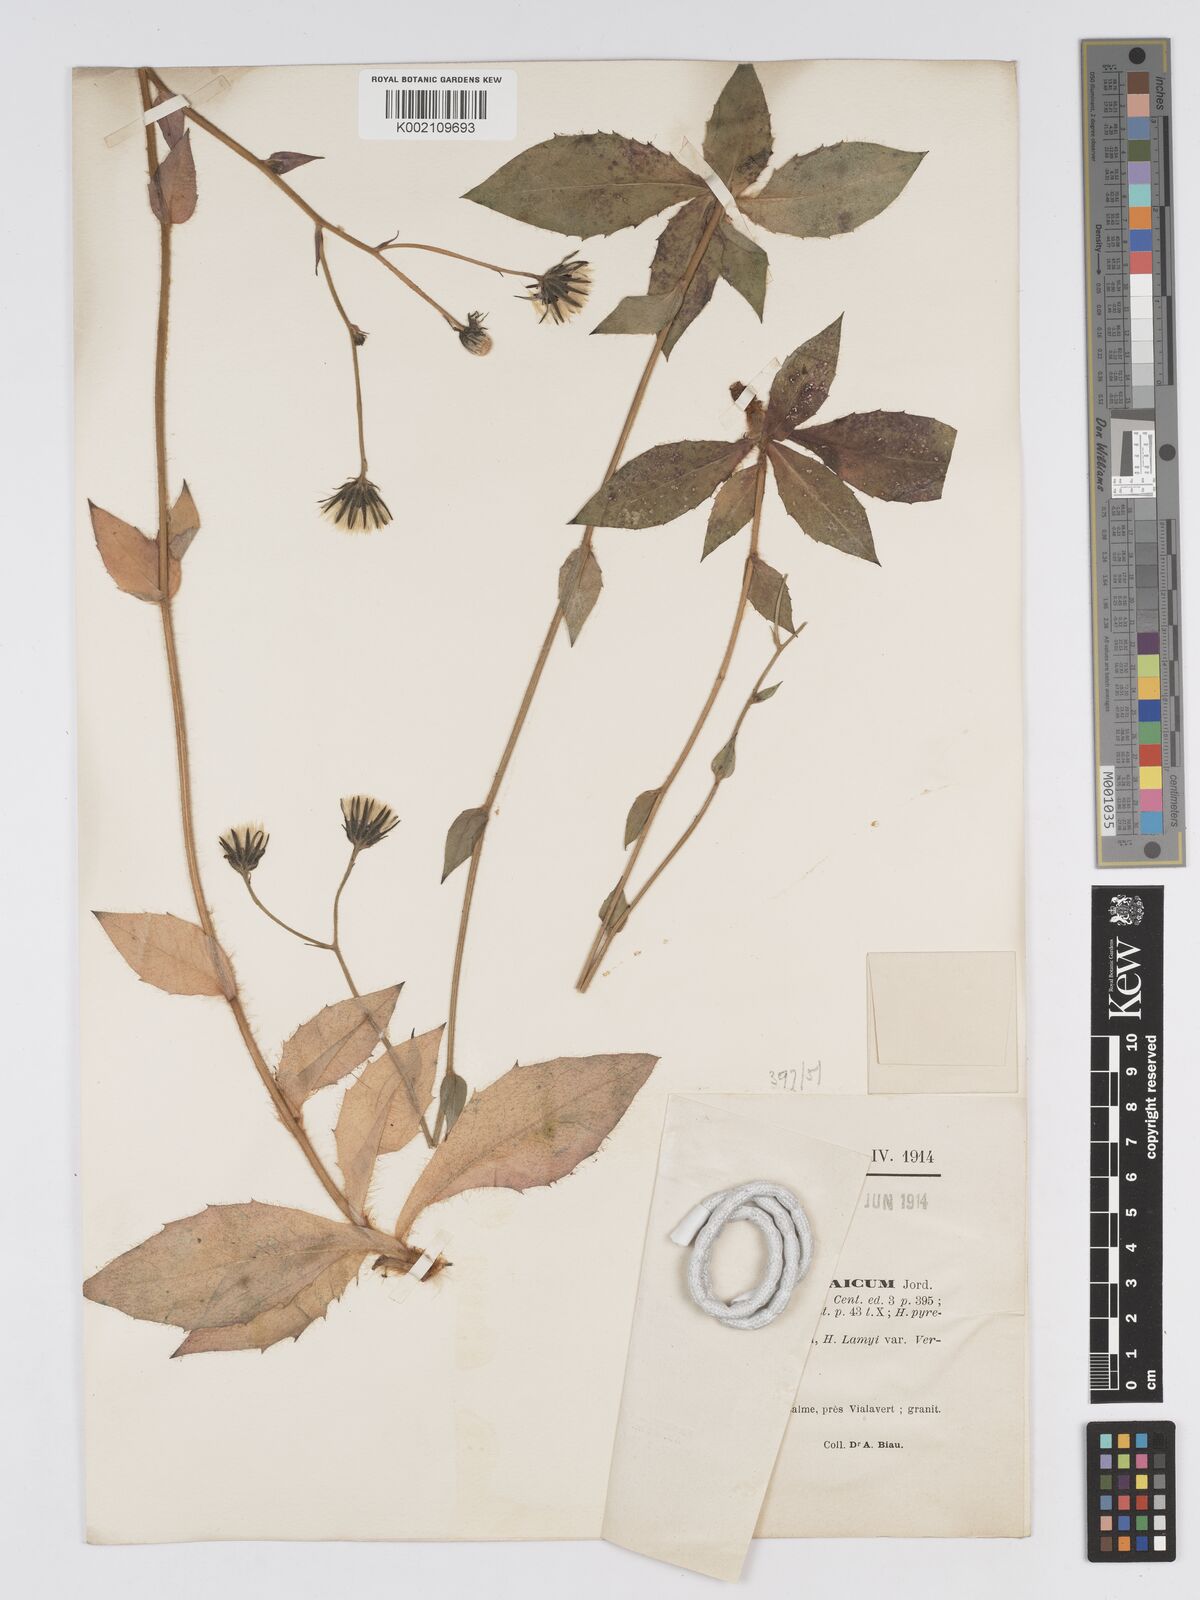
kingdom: Plantae
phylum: Tracheophyta
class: Magnoliopsida
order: Asterales
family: Asteraceae
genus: Hieracium
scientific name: Hieracium nobile
